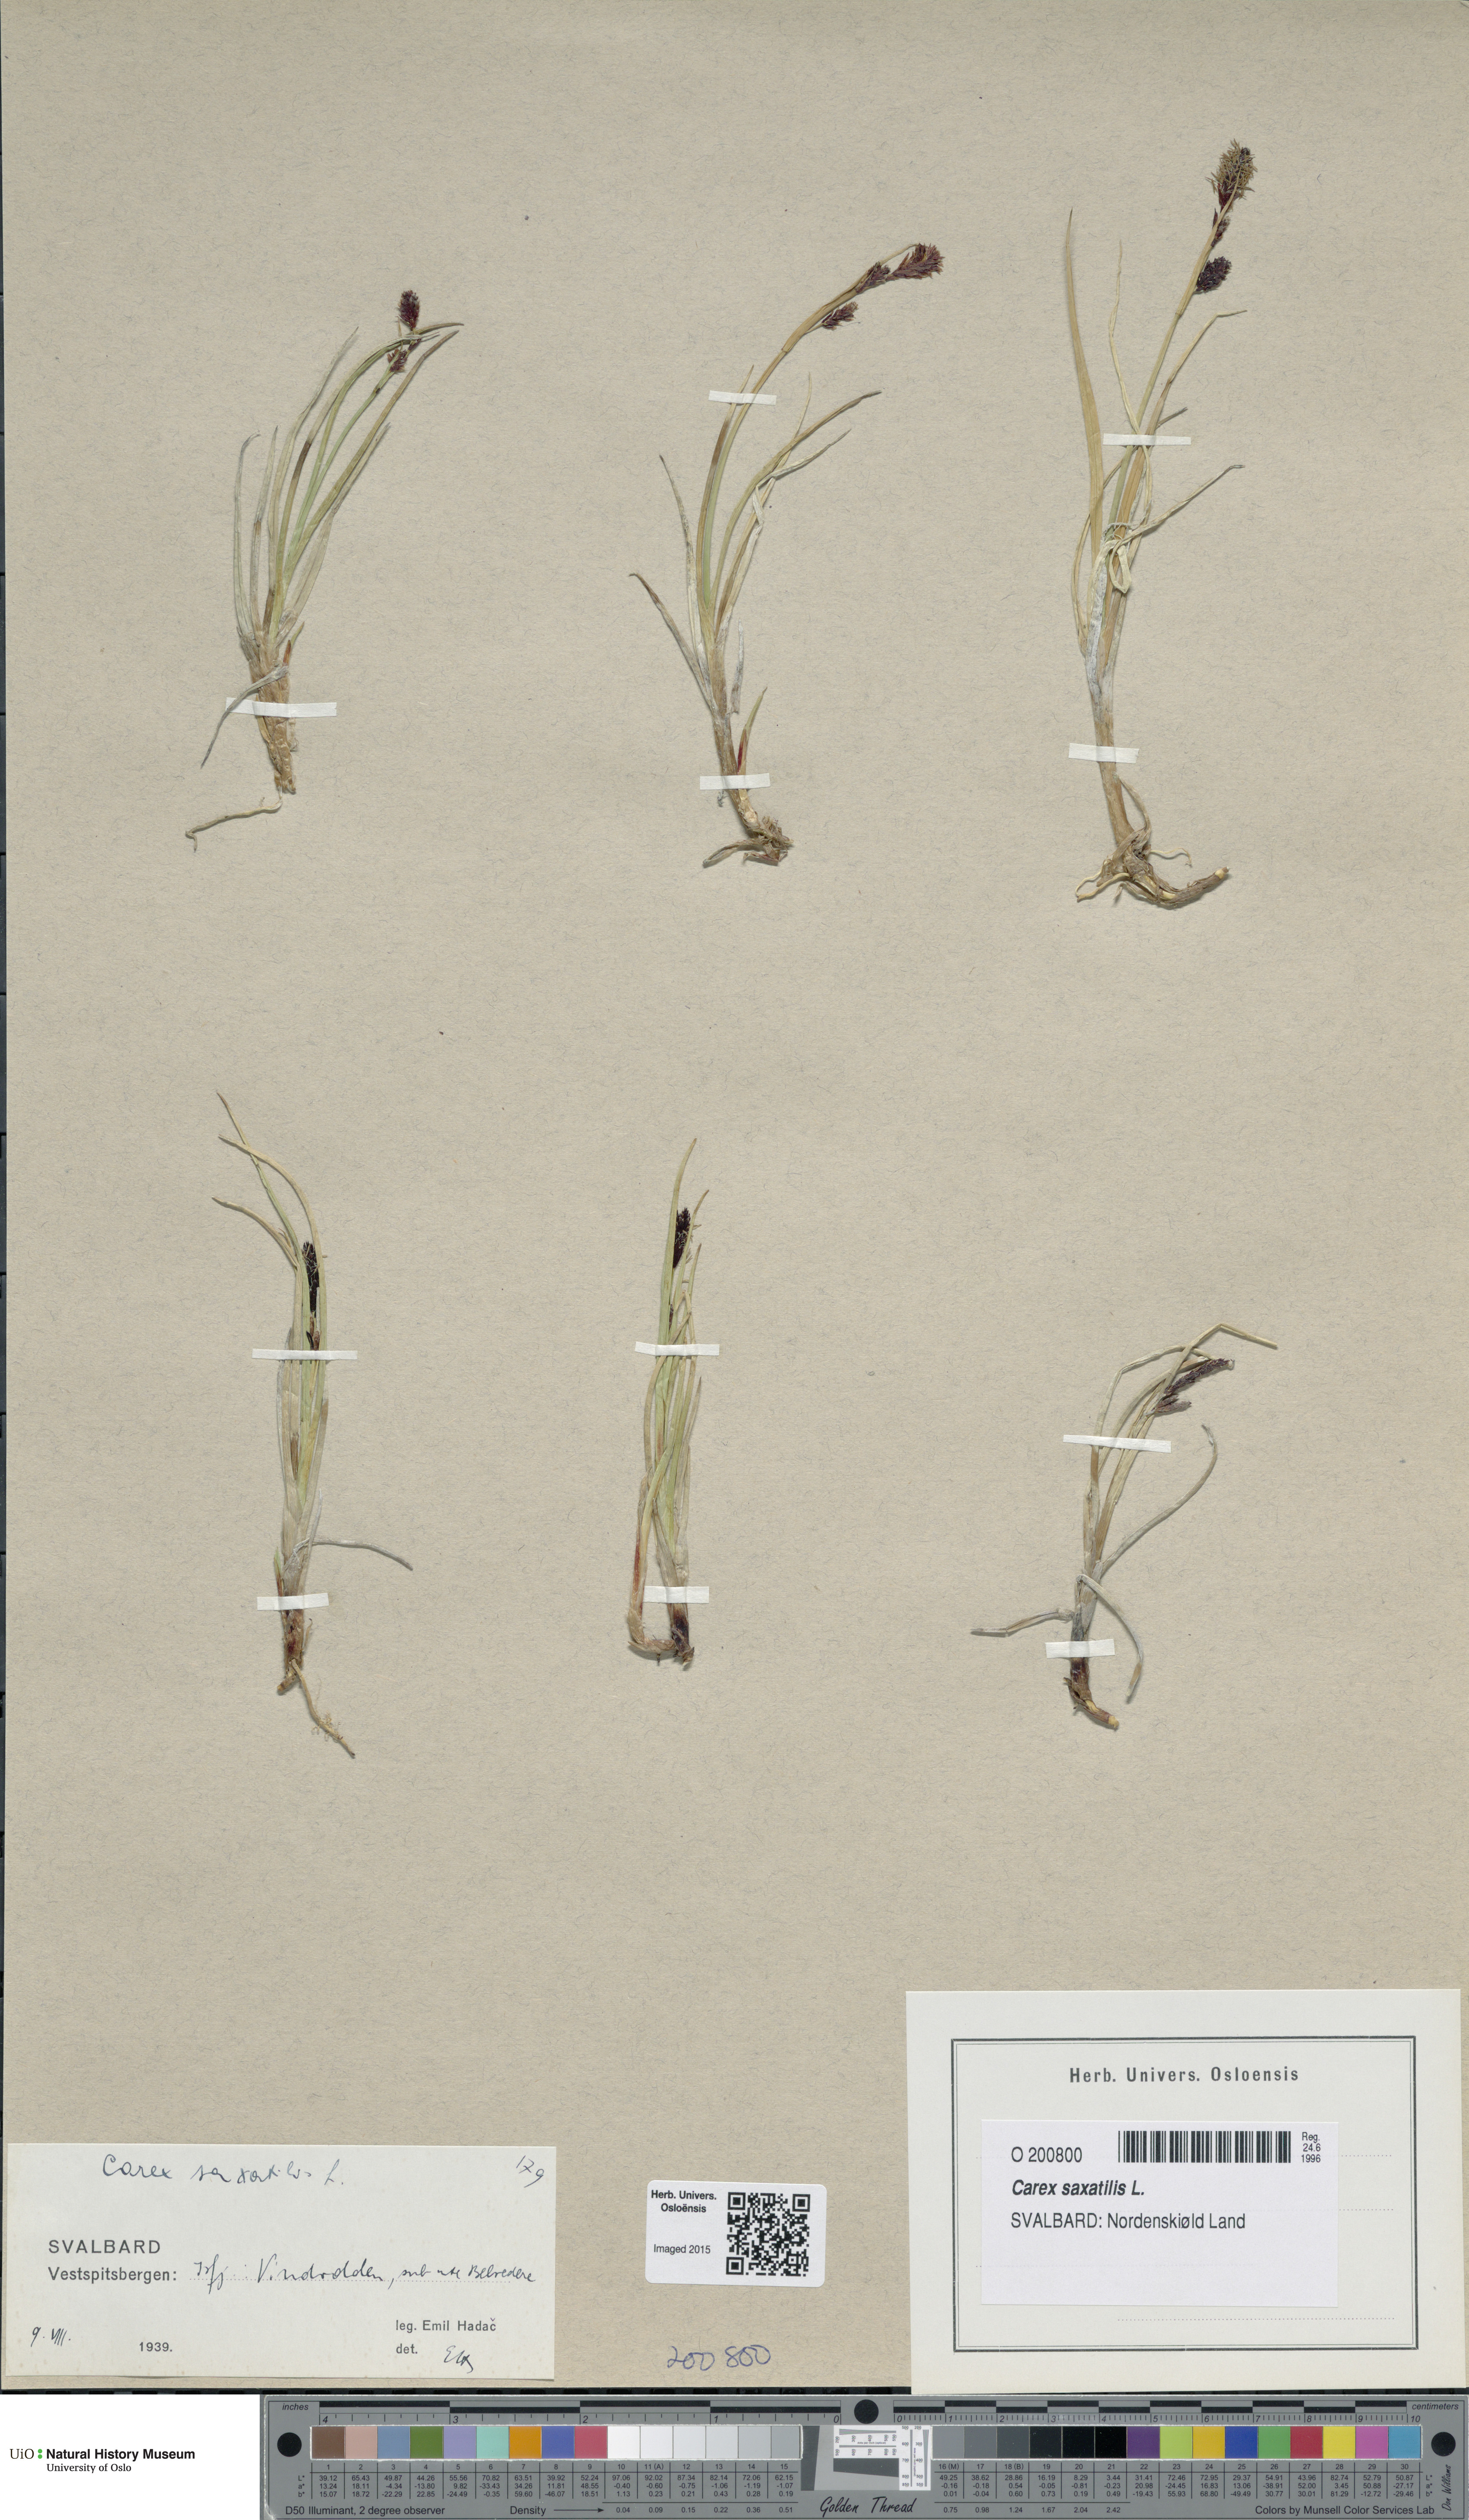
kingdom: Plantae
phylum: Tracheophyta
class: Liliopsida
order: Poales
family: Cyperaceae
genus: Carex
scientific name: Carex saxatilis
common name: Russet sedge
